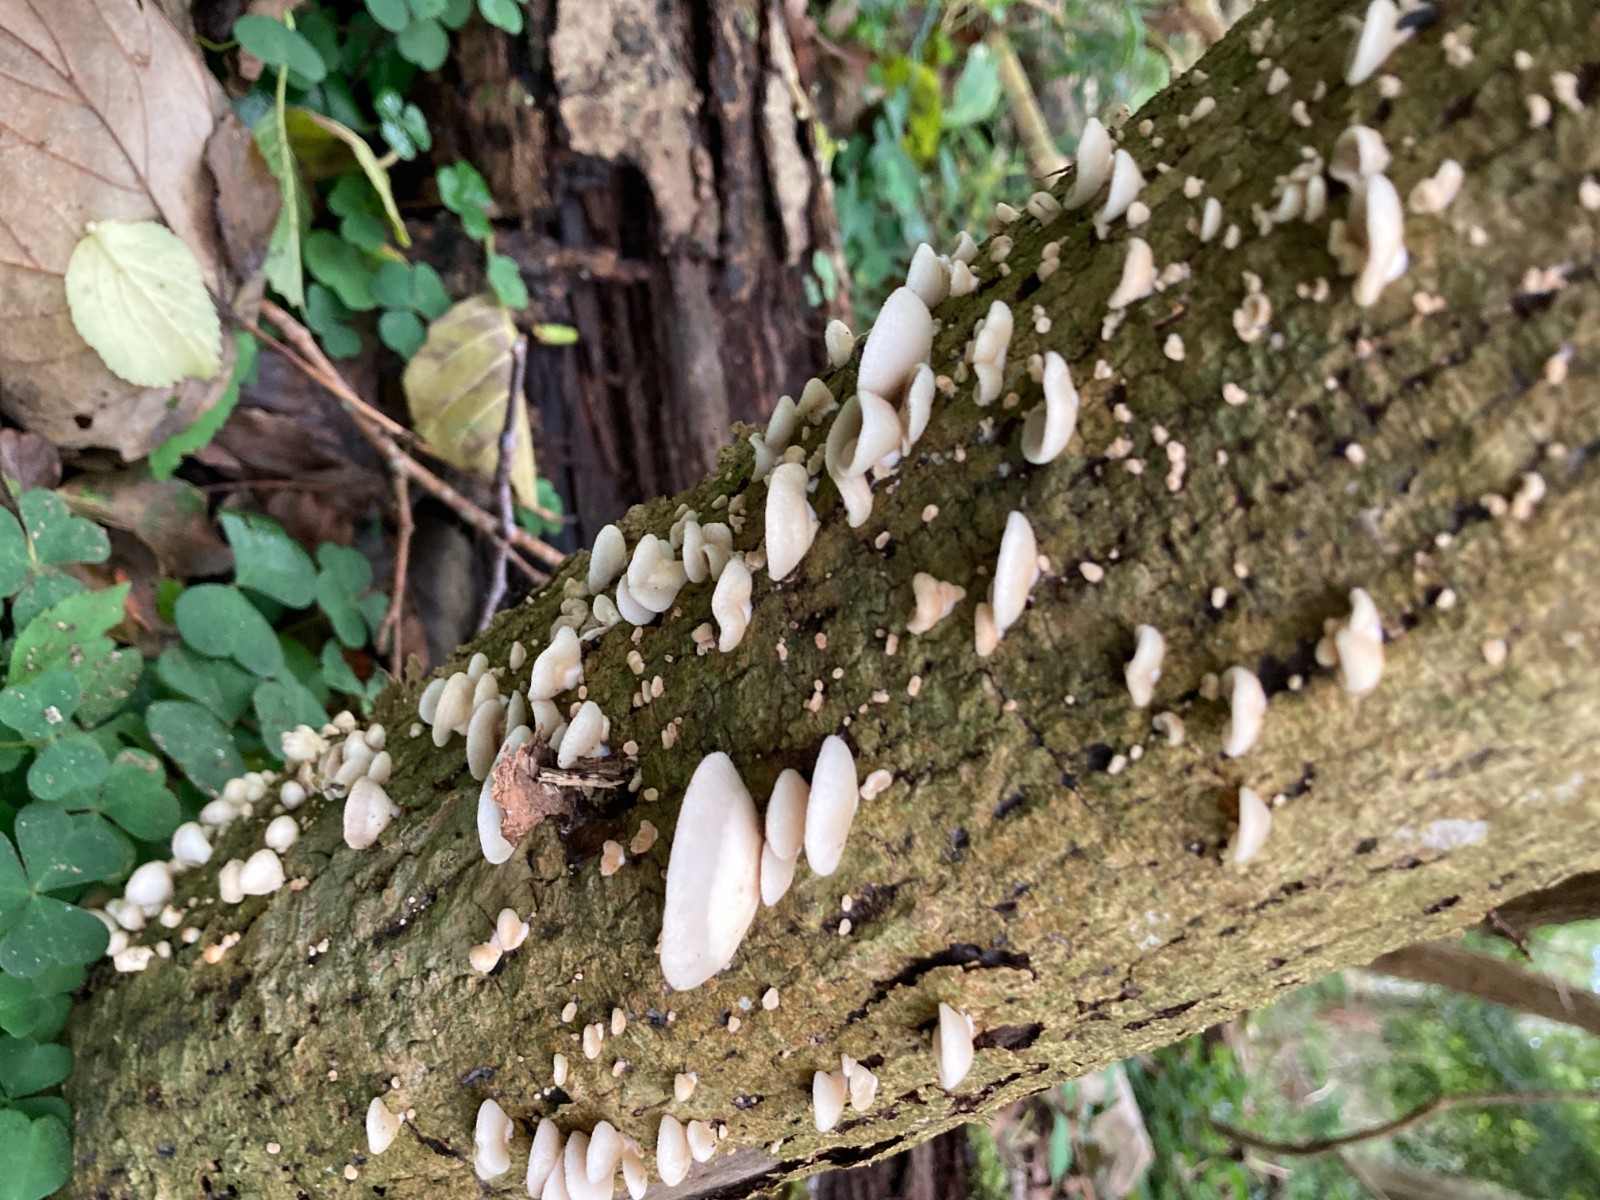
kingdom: Fungi
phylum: Basidiomycota
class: Agaricomycetes
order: Agaricales
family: Crepidotaceae
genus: Crepidotus
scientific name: Crepidotus mollis
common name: blød muslingesvamp
